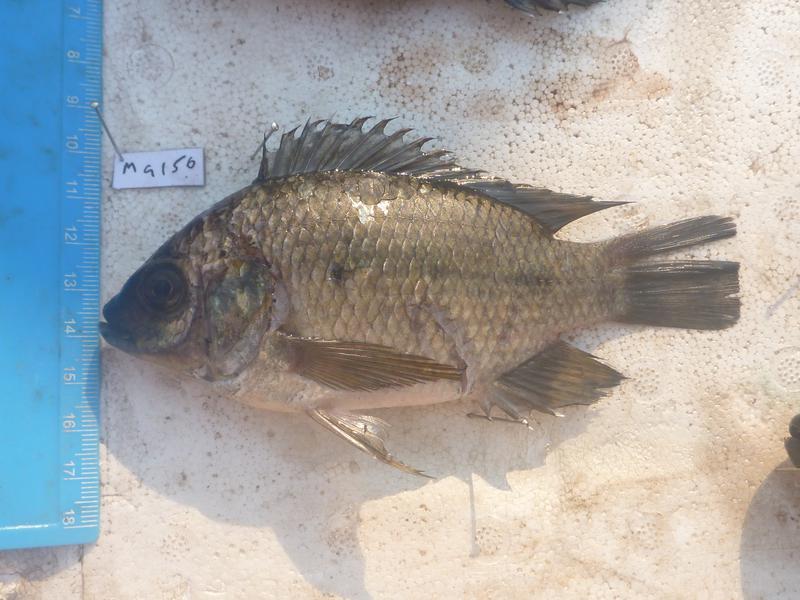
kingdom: Animalia
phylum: Chordata
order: Perciformes
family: Cichlidae
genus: Oreochromis
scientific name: Oreochromis upembae
